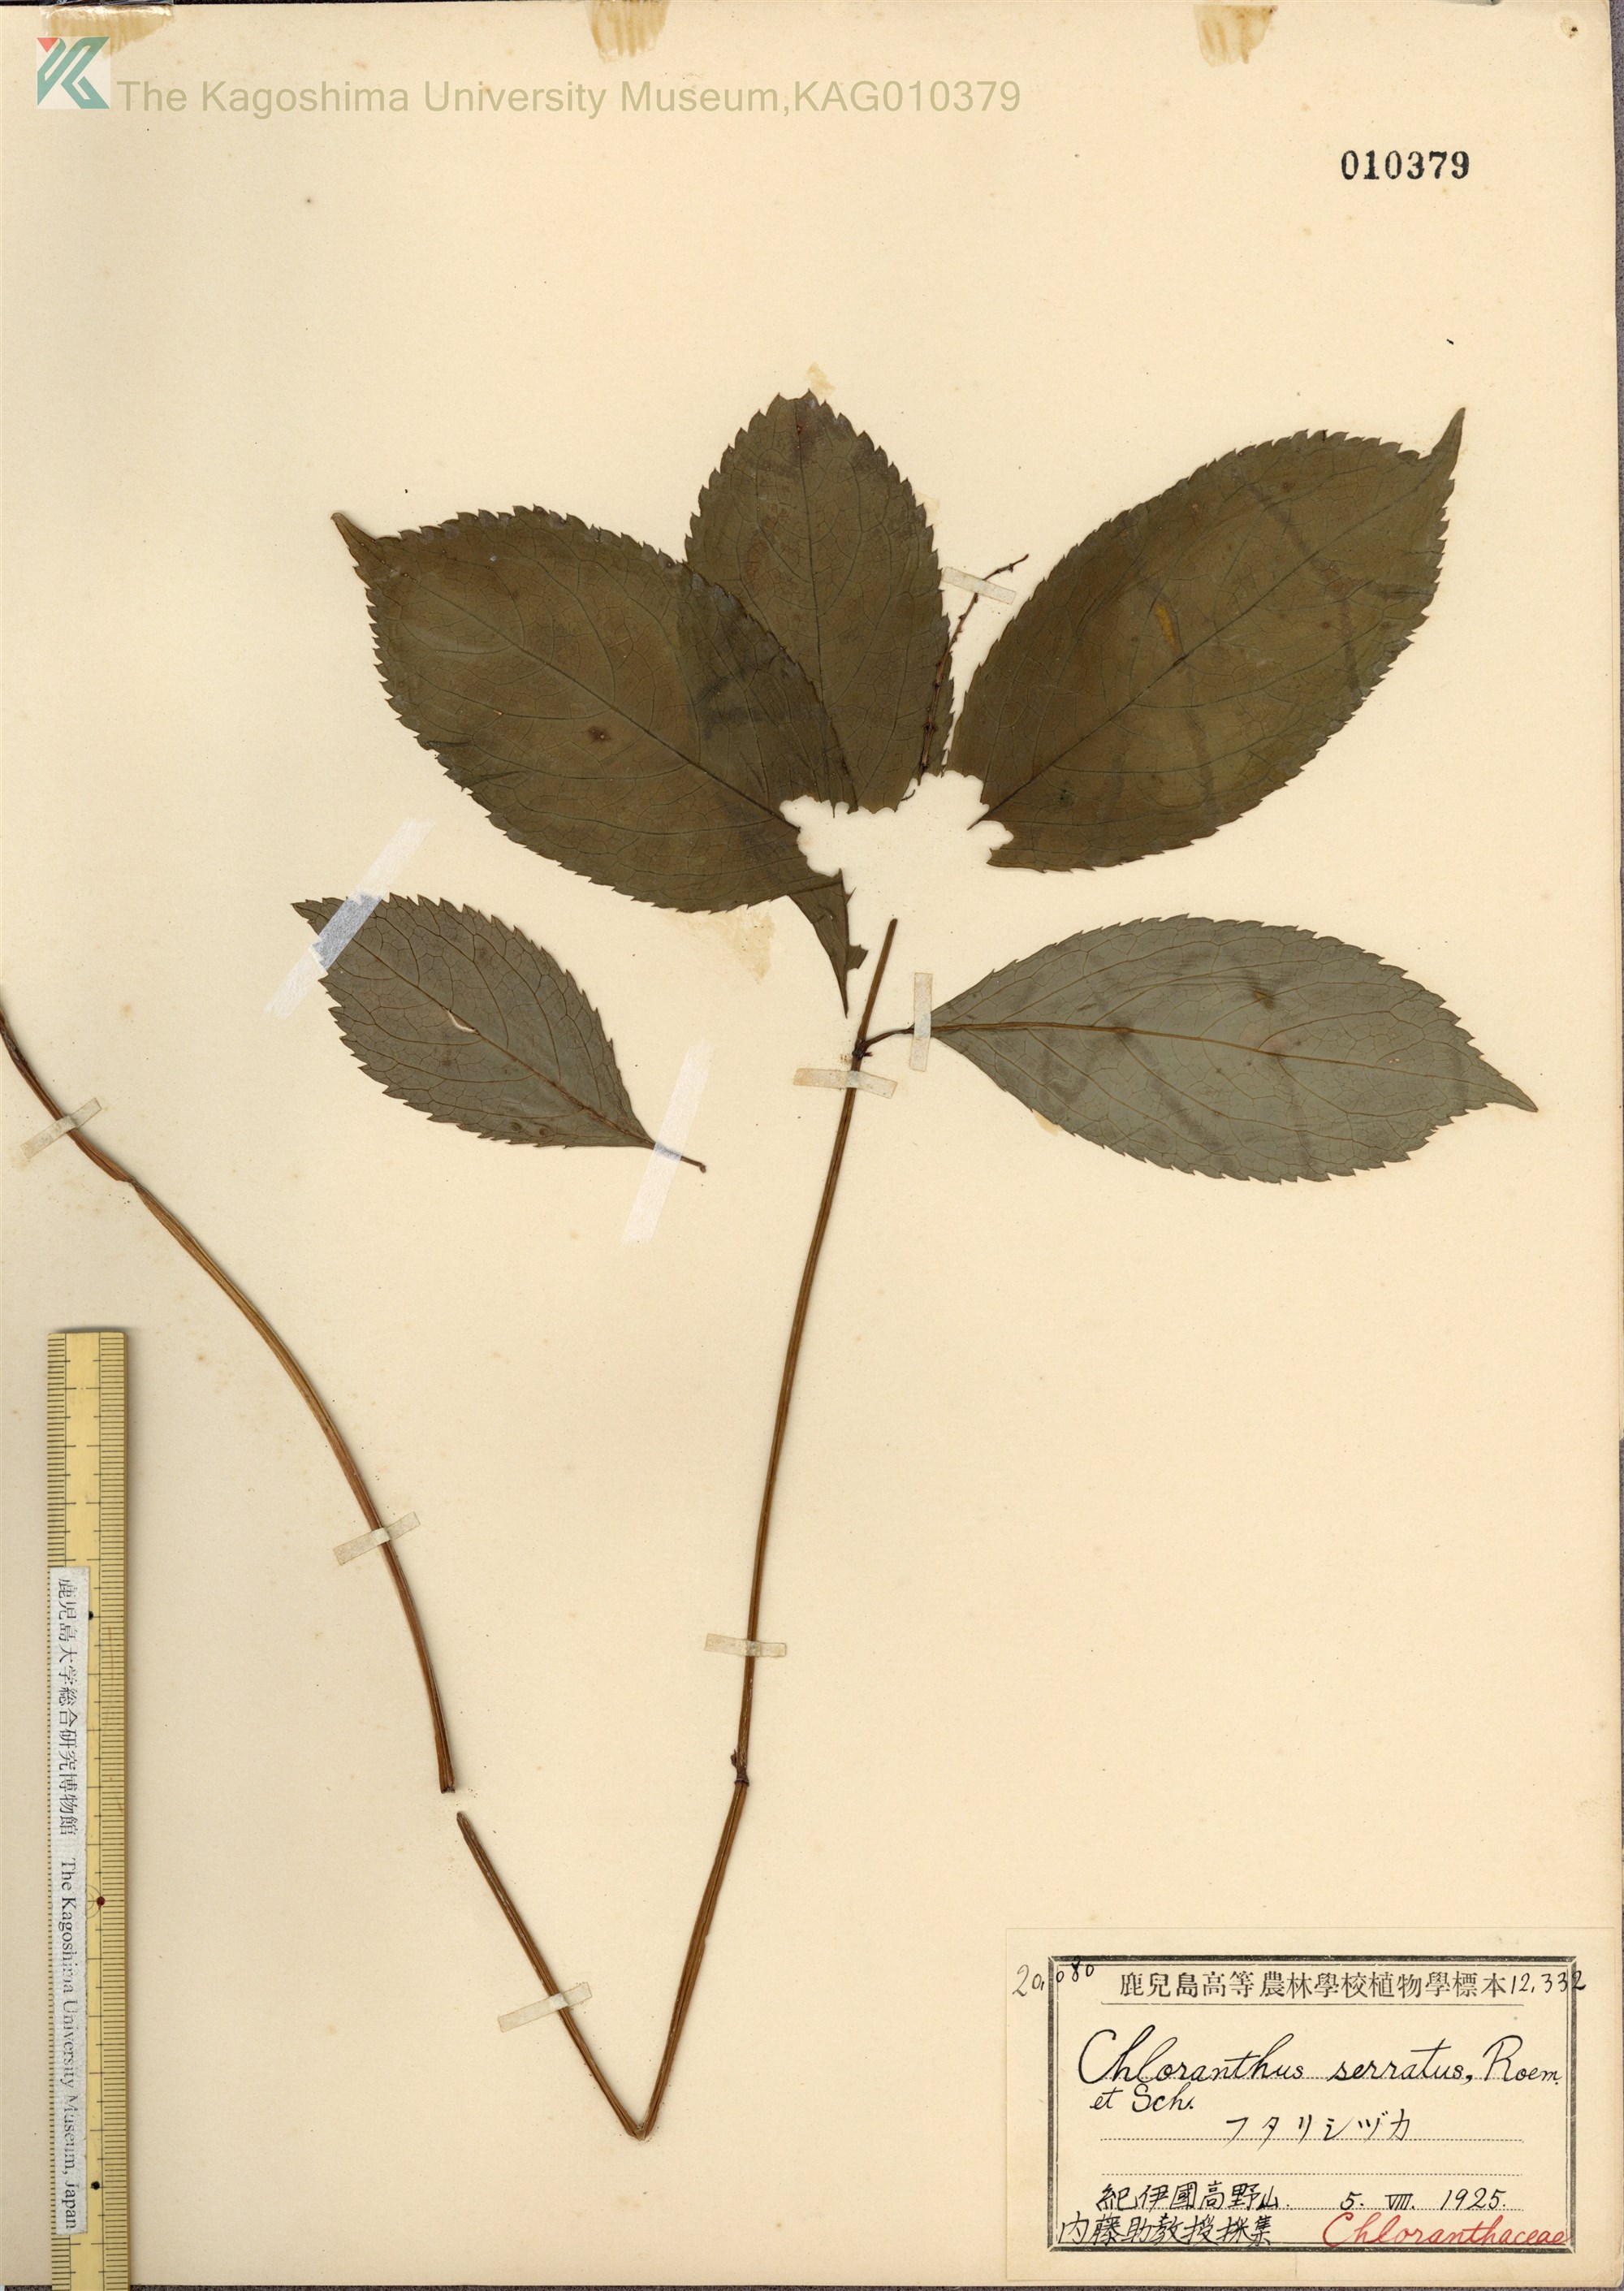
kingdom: Plantae
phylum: Tracheophyta
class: Magnoliopsida
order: Chloranthales
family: Chloranthaceae
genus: Chloranthus
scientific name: Chloranthus serratus
